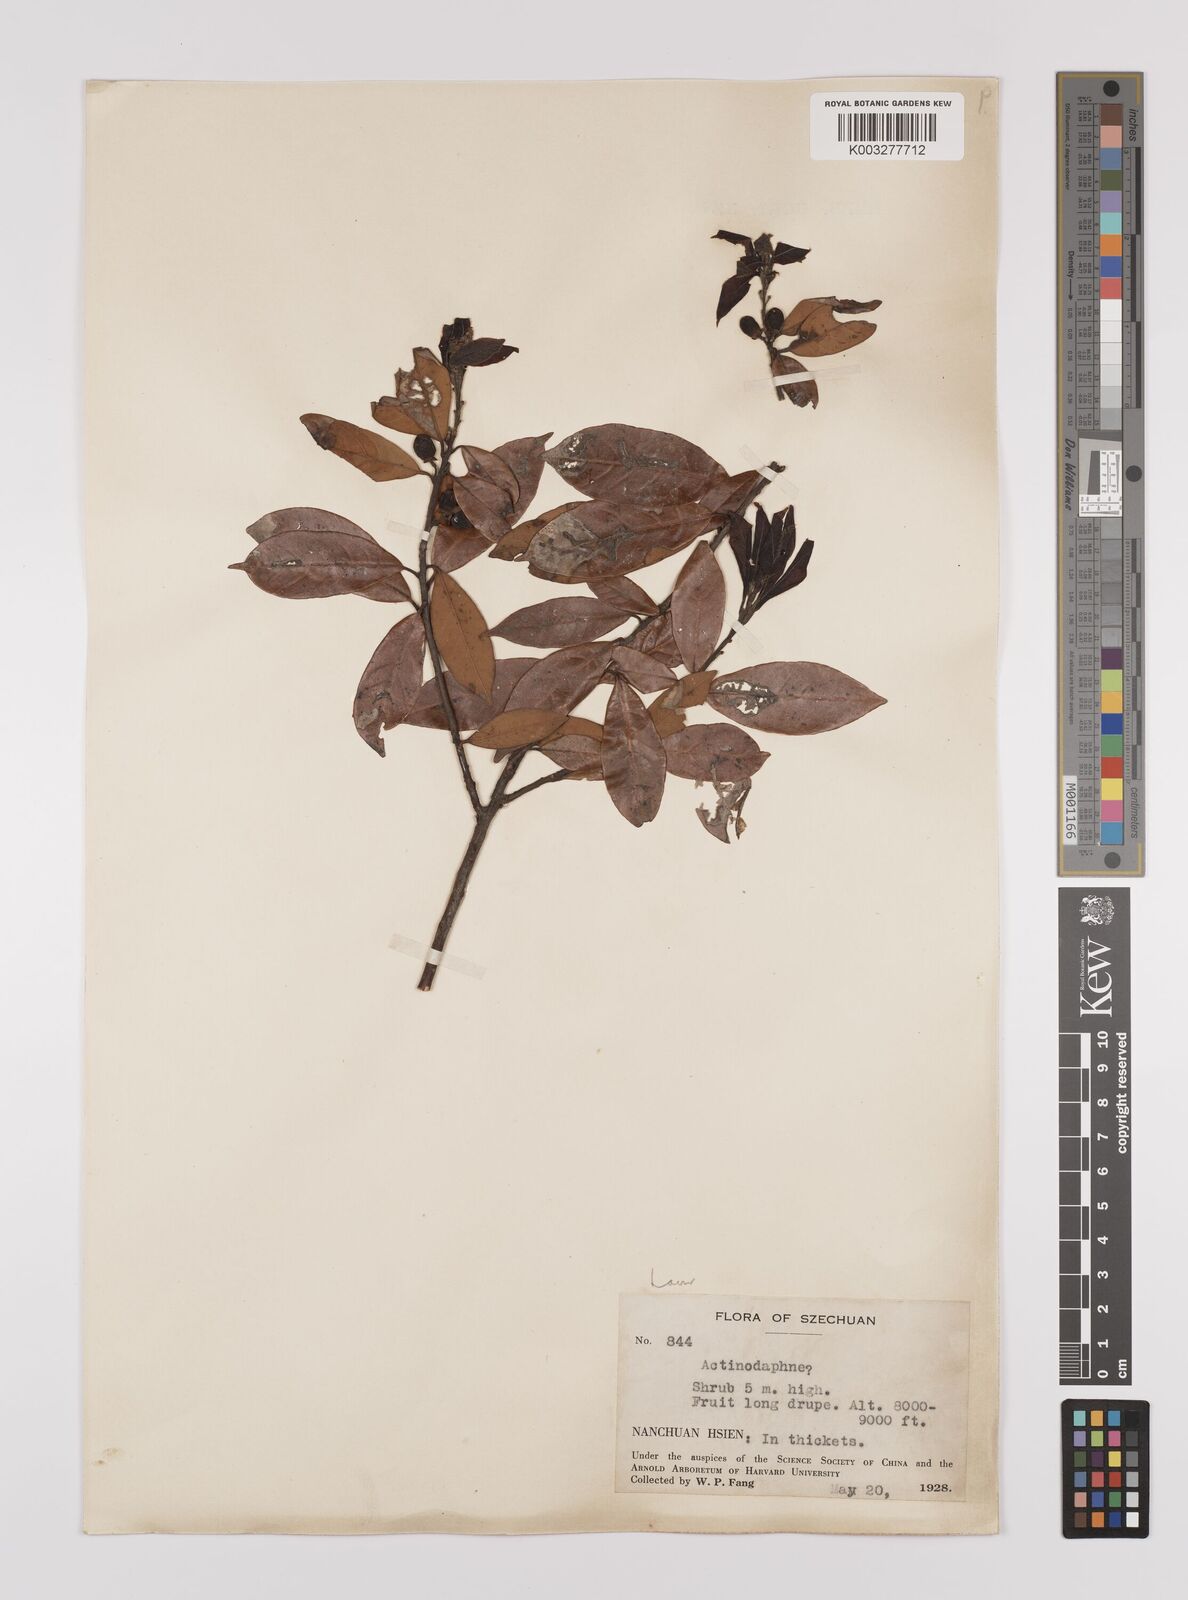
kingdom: Plantae
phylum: Tracheophyta
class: Magnoliopsida
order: Laurales
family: Lauraceae
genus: Litsea
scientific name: Litsea rotundifolia
